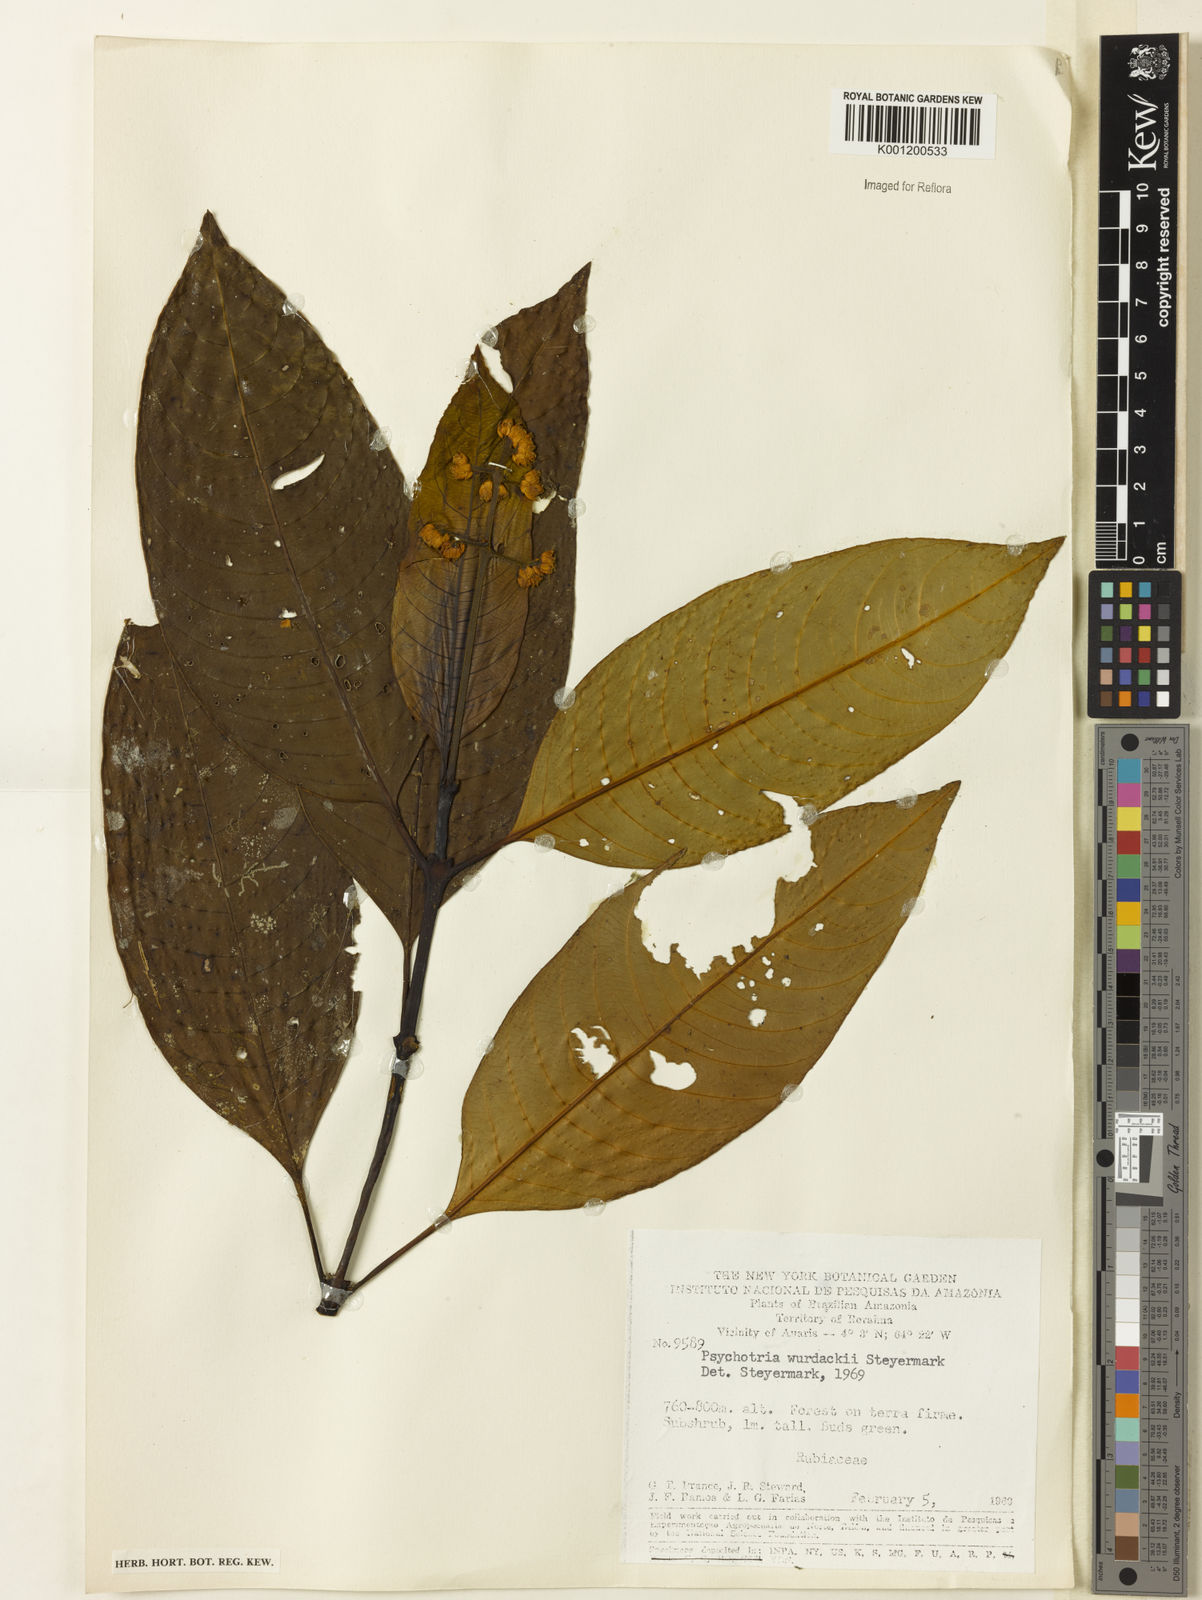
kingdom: Plantae
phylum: Tracheophyta
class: Magnoliopsida
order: Gentianales
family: Rubiaceae
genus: Palicourea
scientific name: Palicourea wurdackii
